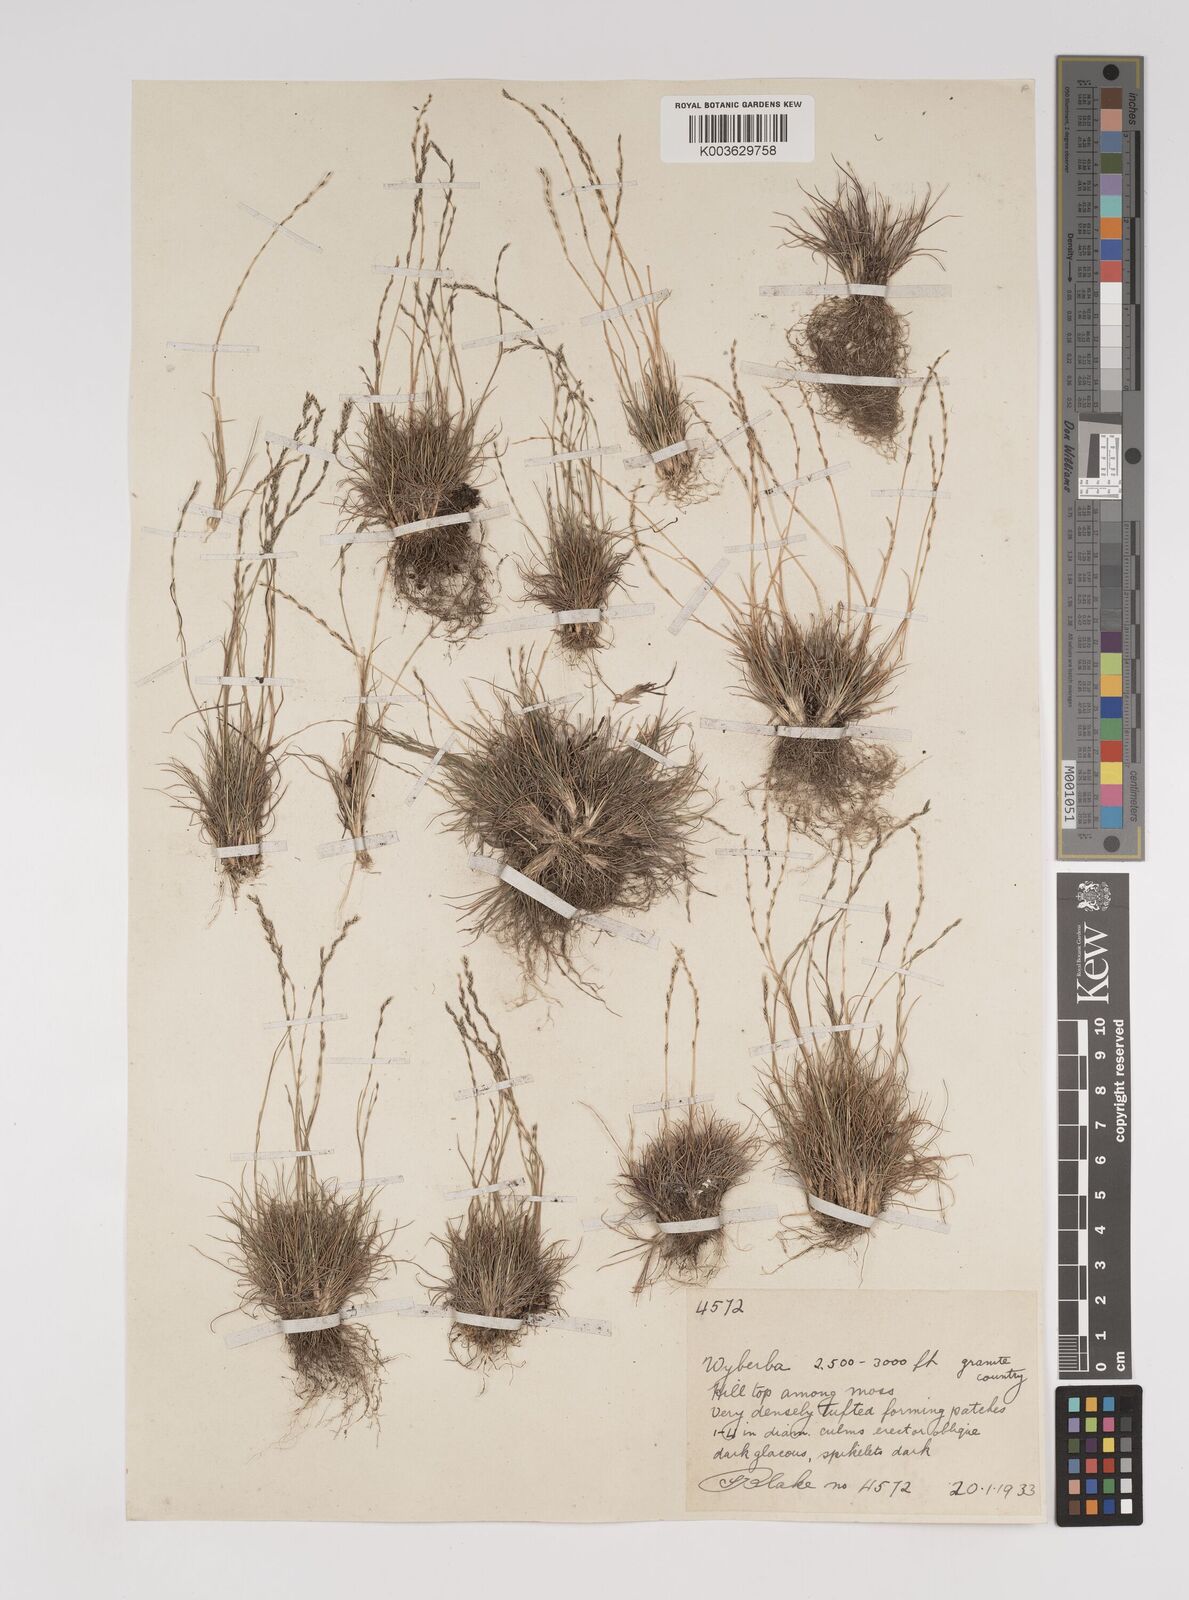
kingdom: Plantae
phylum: Tracheophyta
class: Liliopsida
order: Poales
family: Poaceae
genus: Tripogonella
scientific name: Tripogonella loliiformis
